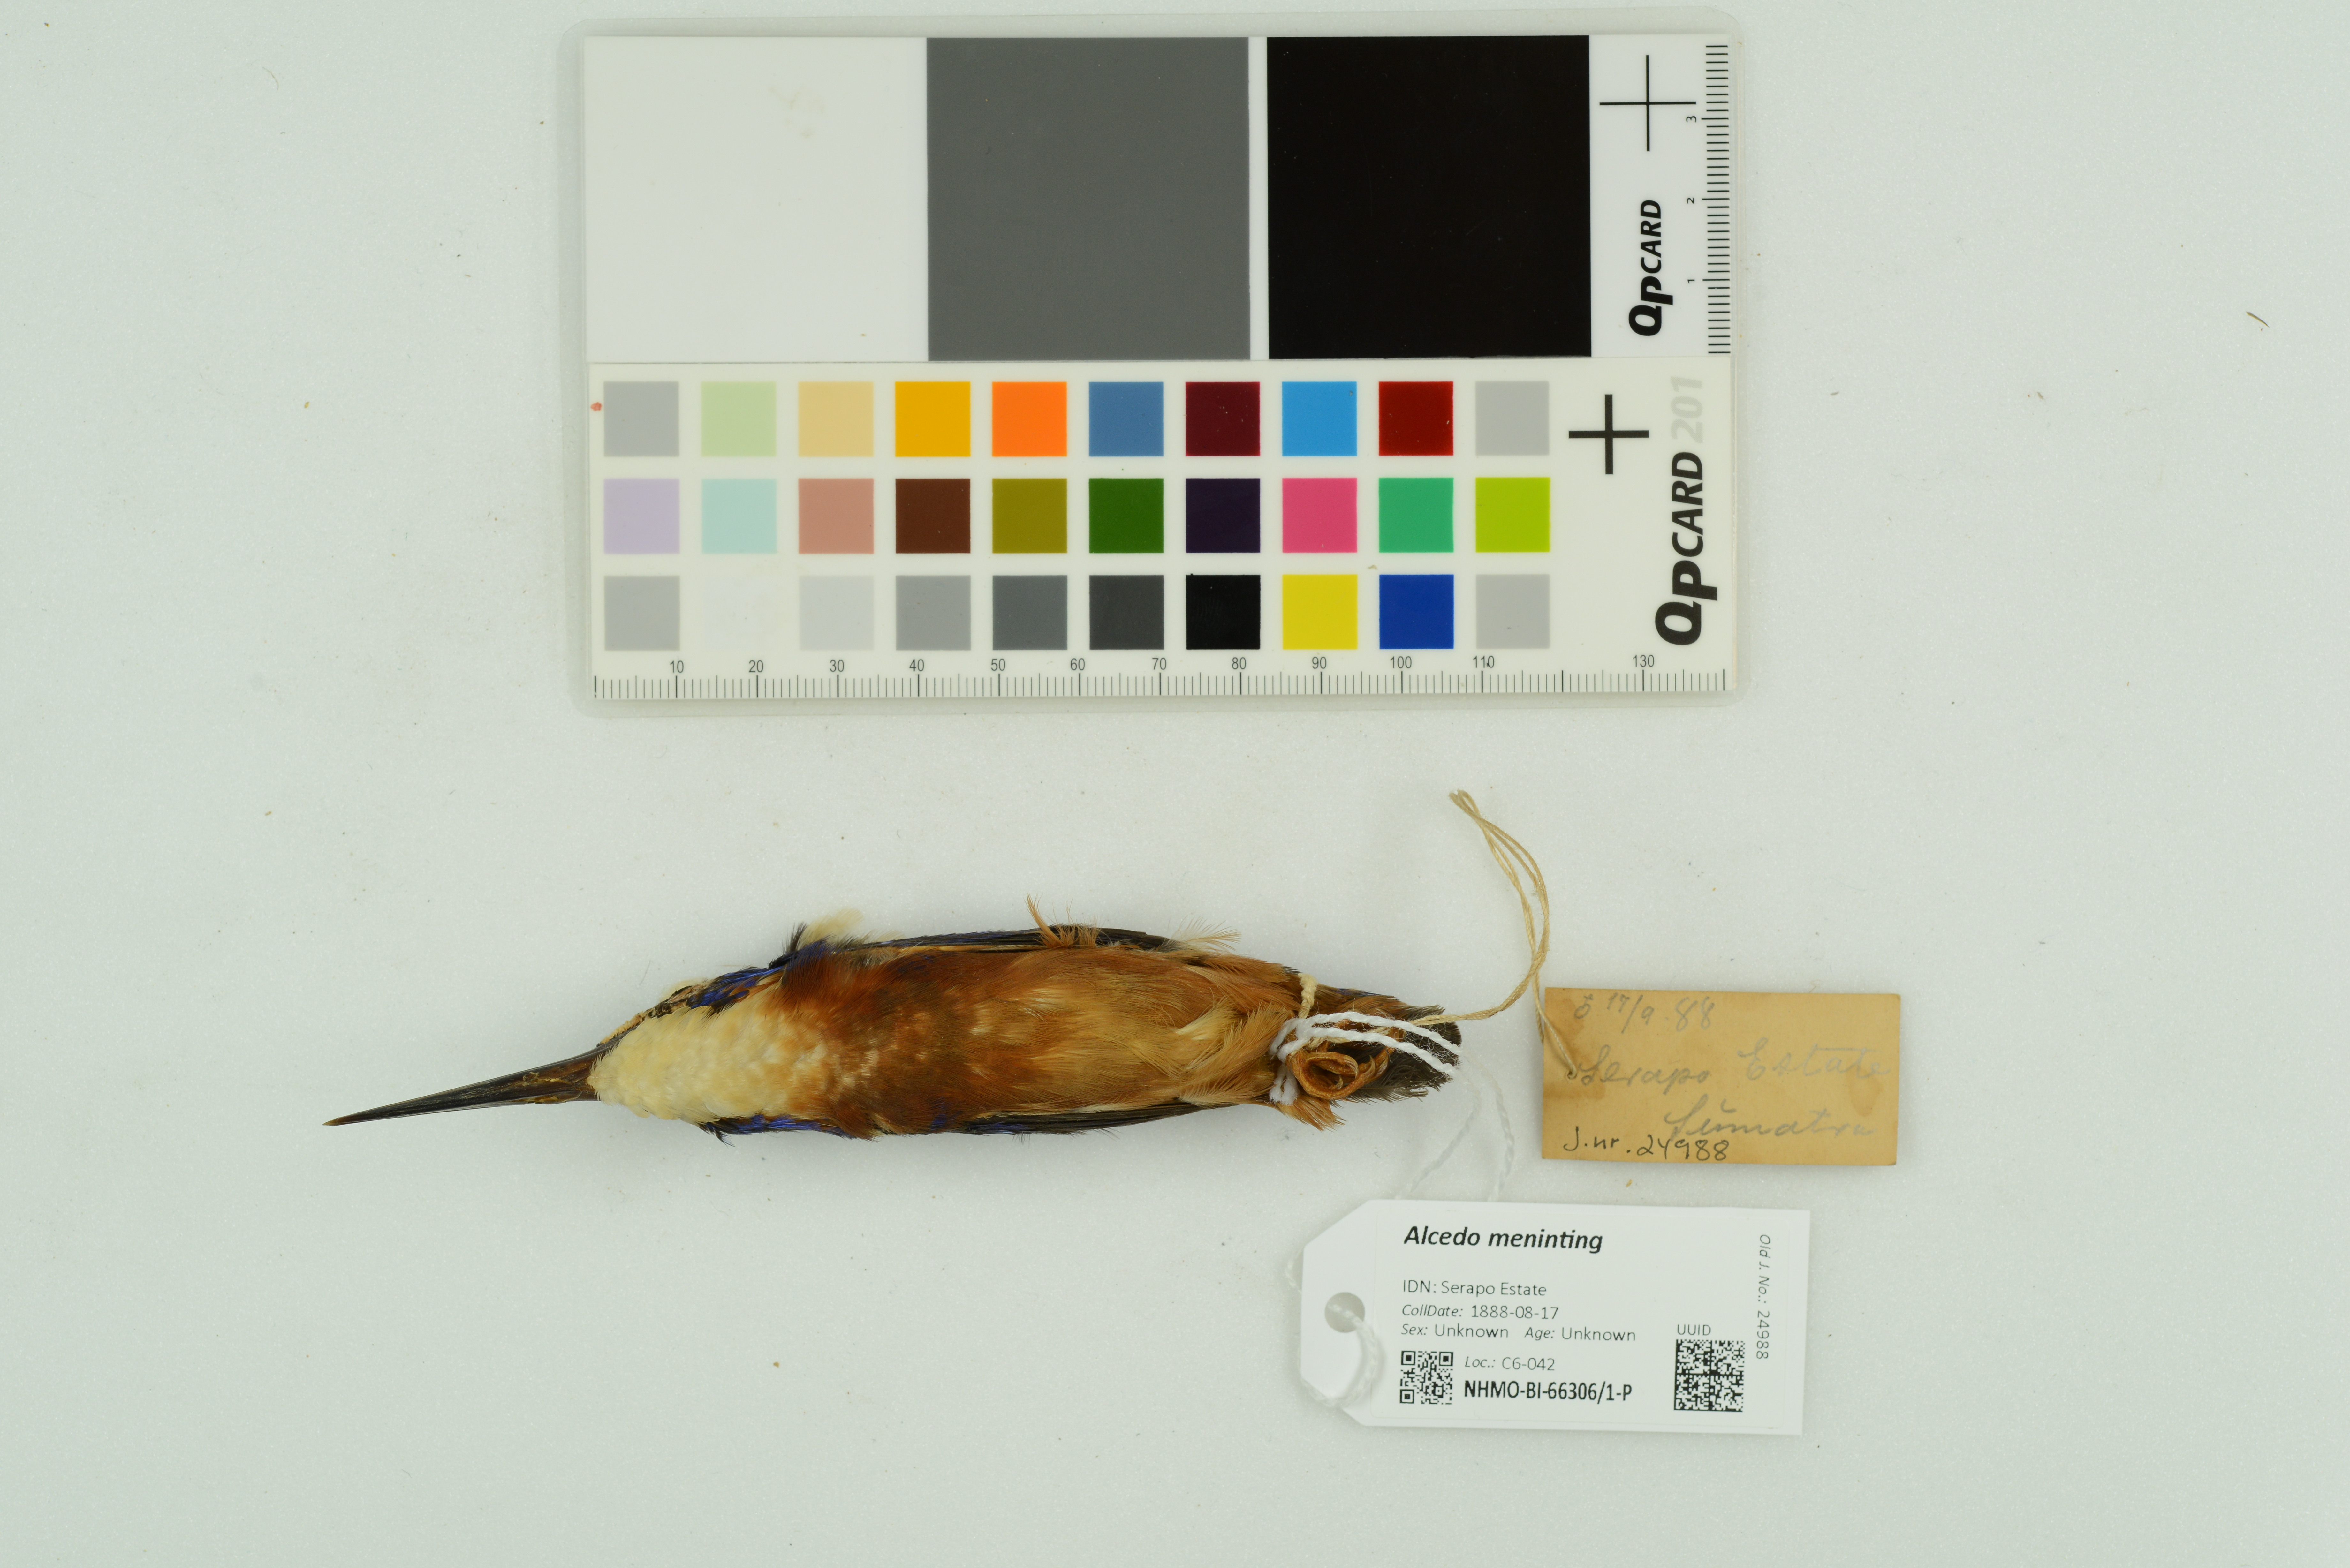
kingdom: Animalia
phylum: Chordata
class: Aves
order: Coraciiformes
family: Alcedinidae
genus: Alcedo
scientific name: Alcedo meninting
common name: Blue-eared kingfisher
